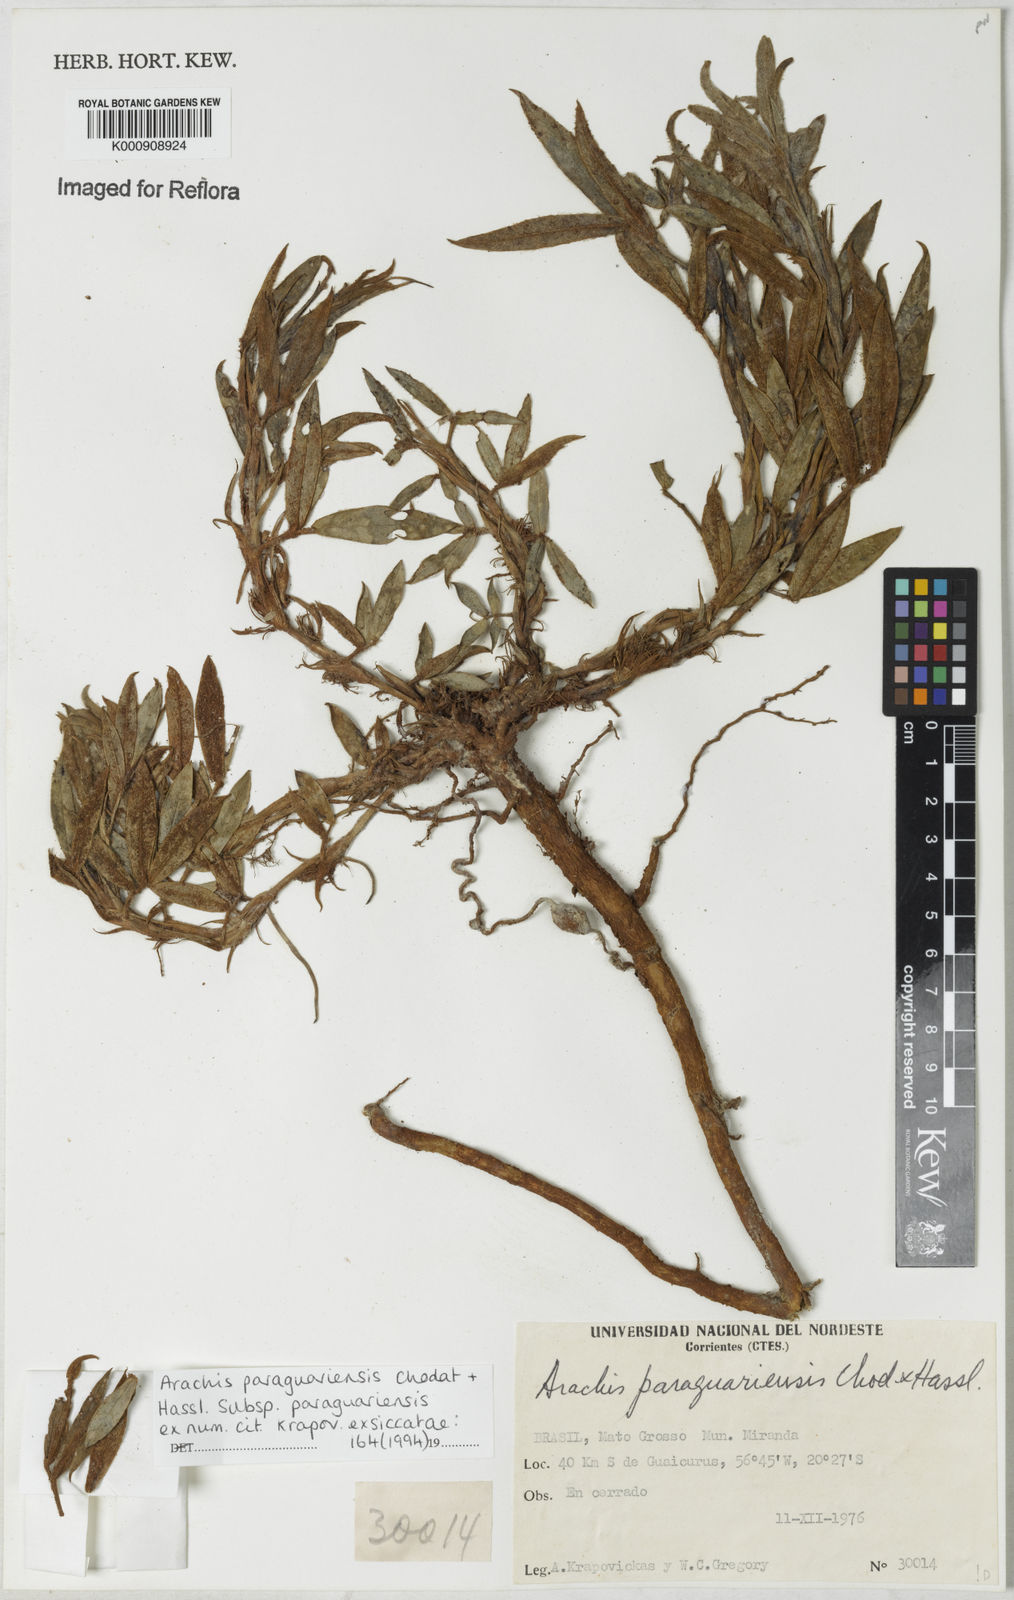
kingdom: Plantae
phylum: Tracheophyta
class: Magnoliopsida
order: Fabales
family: Fabaceae
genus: Arachis
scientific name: Arachis paraguariensis
